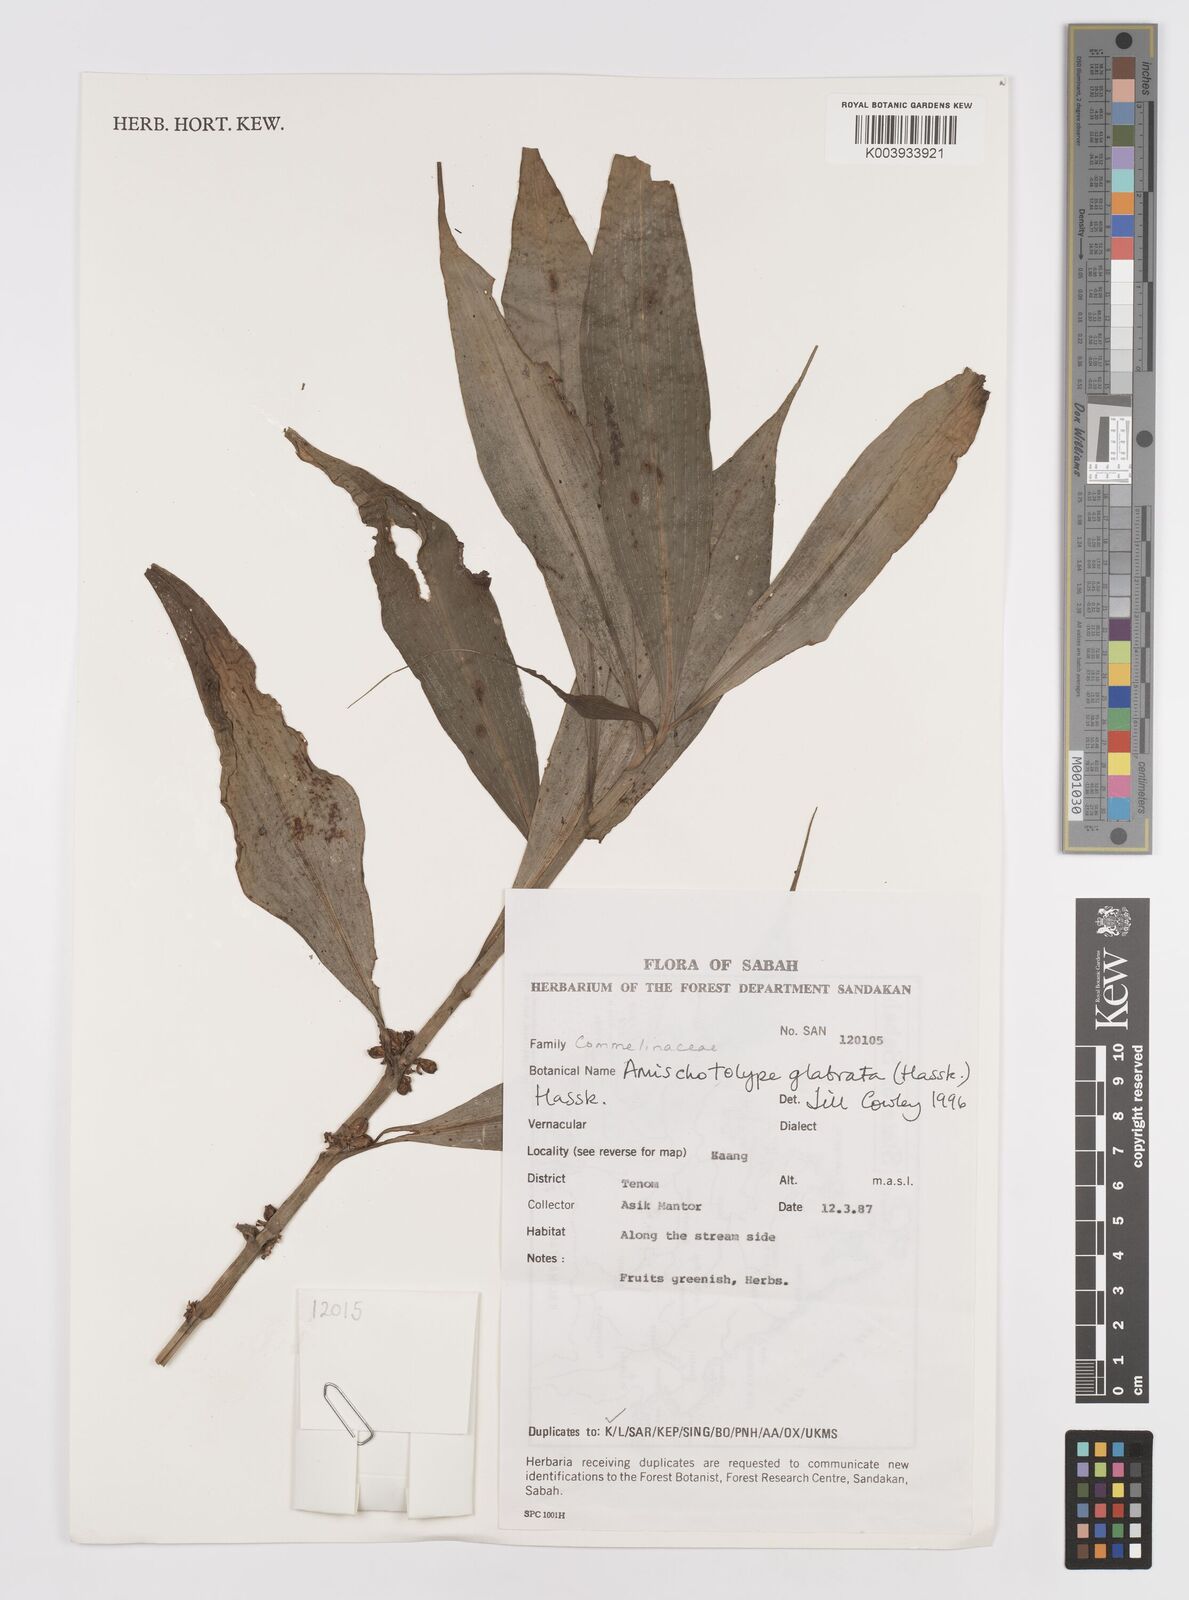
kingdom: Plantae
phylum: Tracheophyta
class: Liliopsida
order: Commelinales
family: Commelinaceae
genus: Amischotolype
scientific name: Amischotolype glabrata
